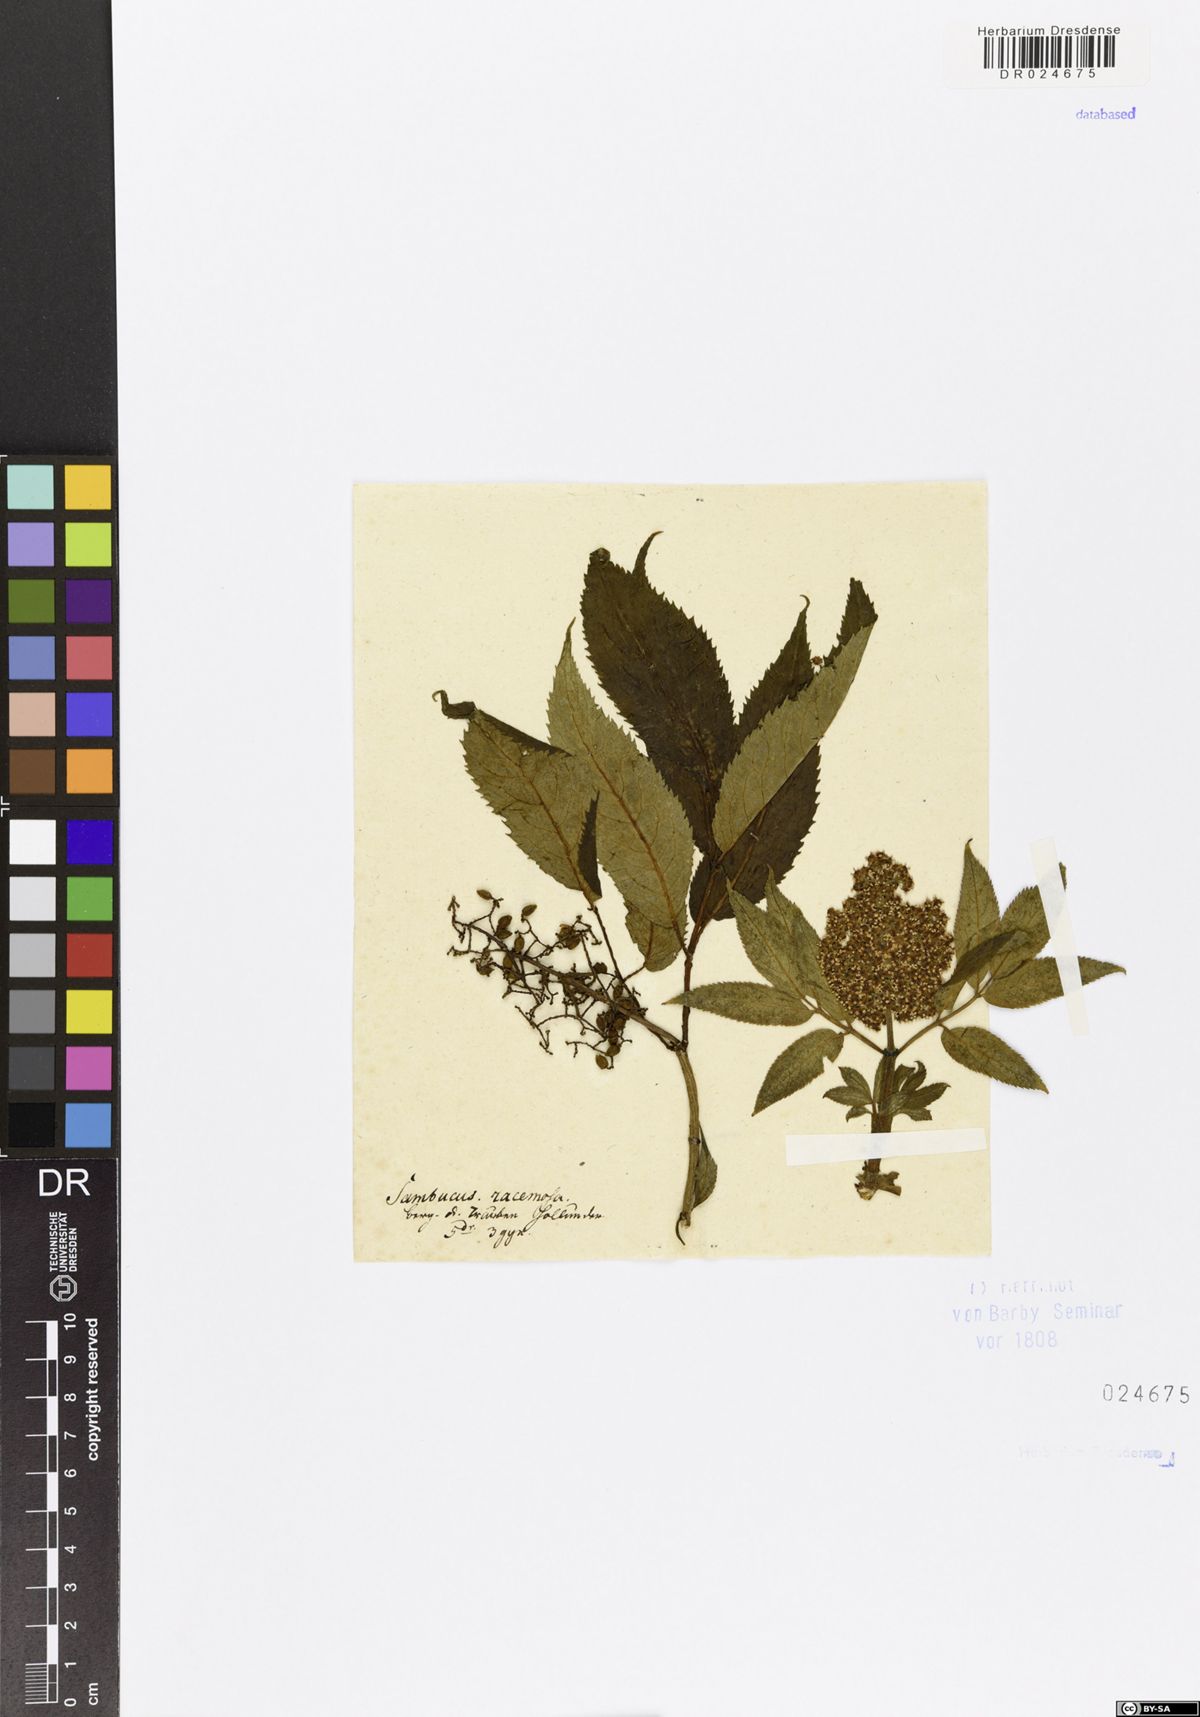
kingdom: Plantae
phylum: Tracheophyta
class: Magnoliopsida
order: Dipsacales
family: Viburnaceae
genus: Sambucus
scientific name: Sambucus racemosa
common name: Red-berried elder
